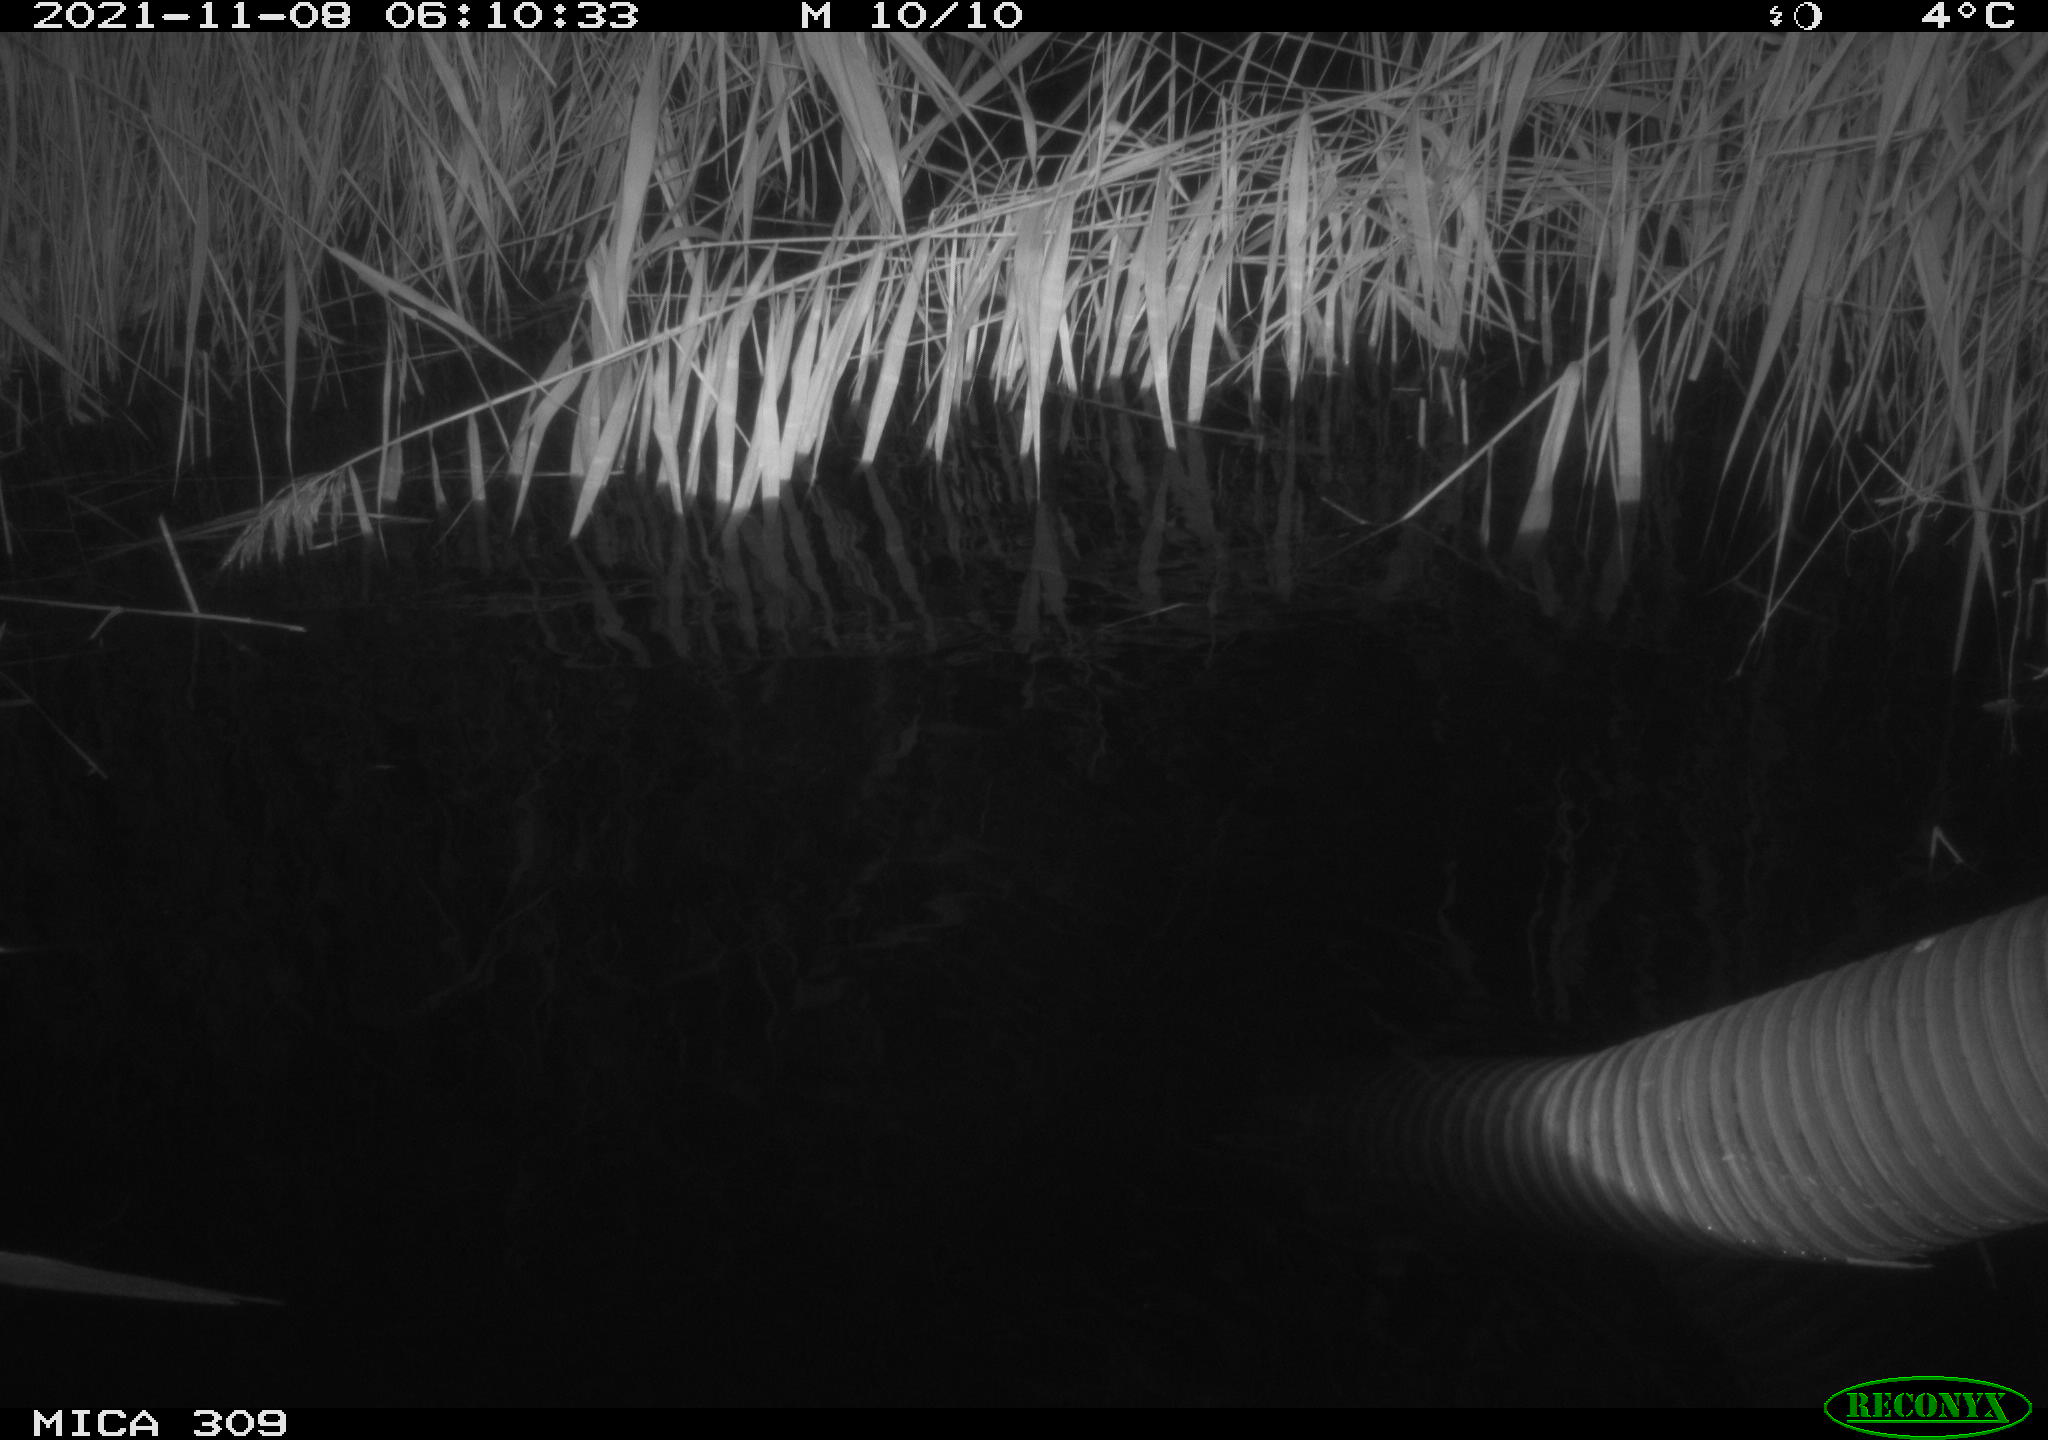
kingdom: Animalia
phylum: Chordata
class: Mammalia
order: Rodentia
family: Muridae
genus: Rattus
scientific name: Rattus norvegicus
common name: Brown rat
